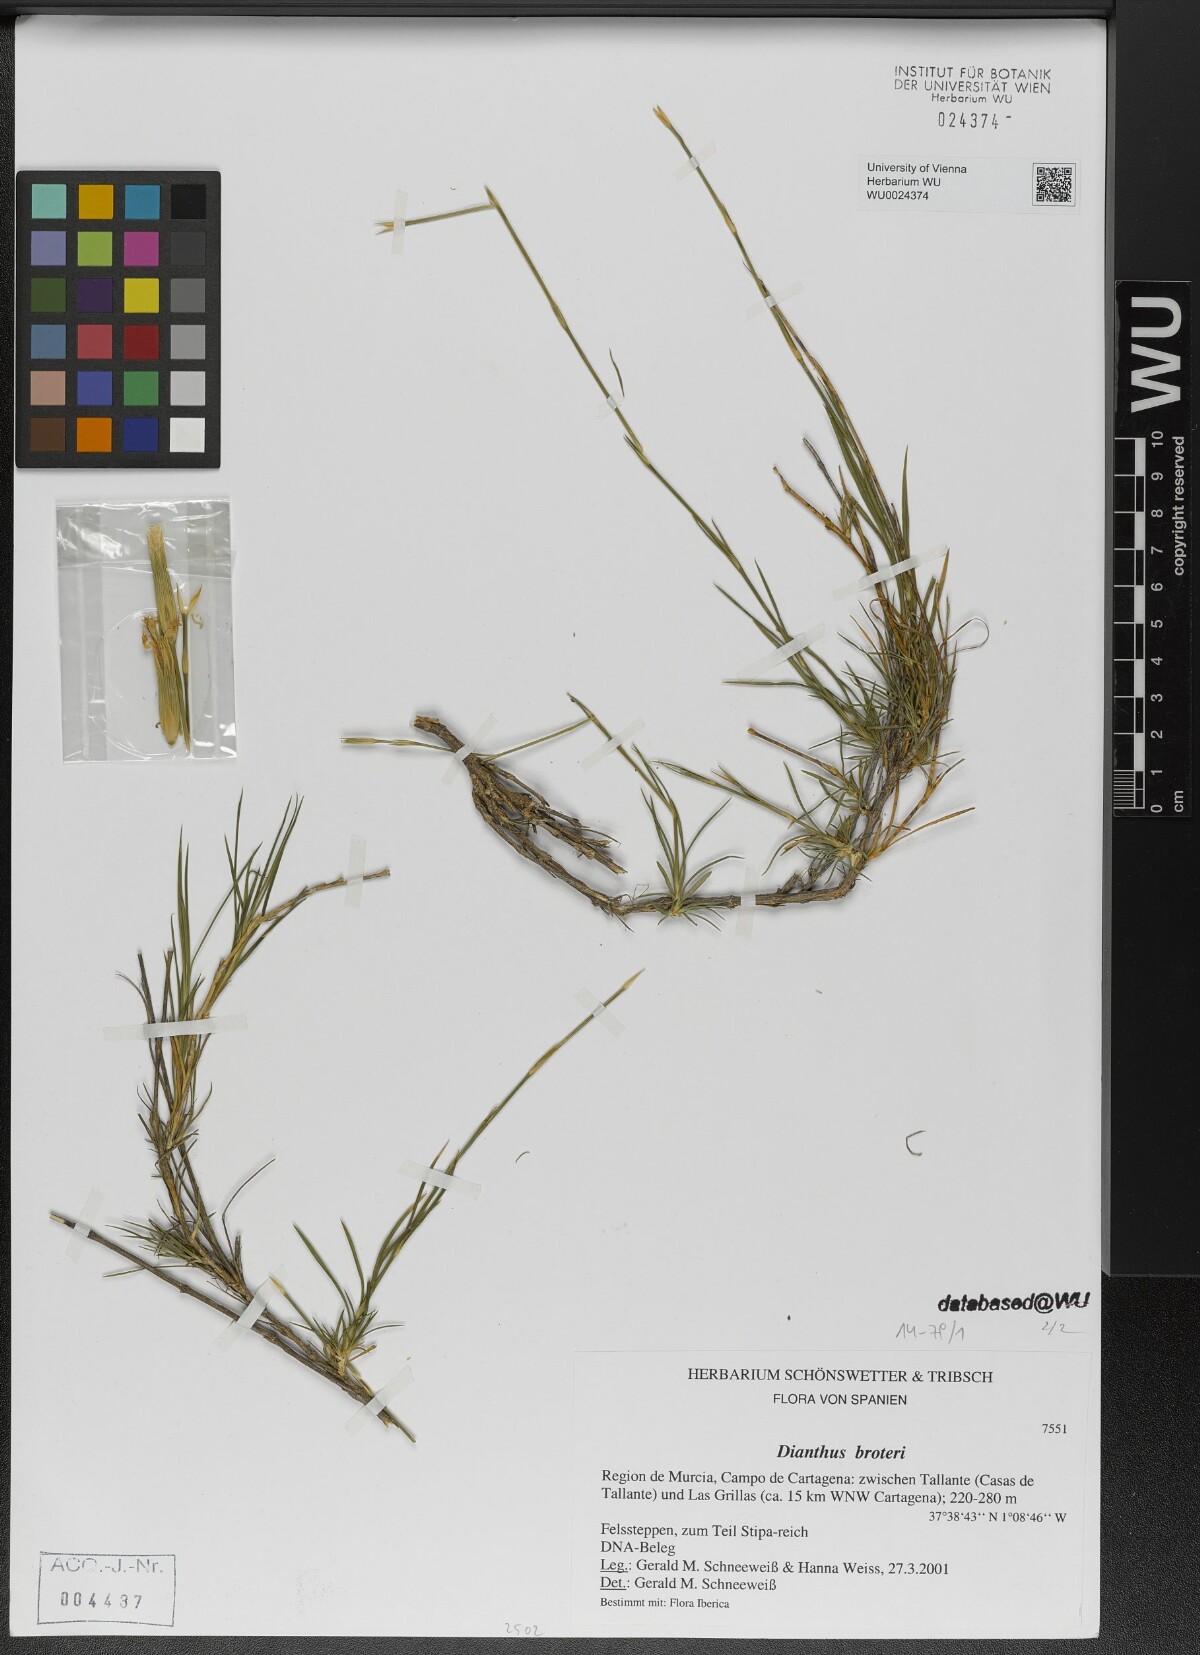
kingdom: Plantae
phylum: Tracheophyta
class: Magnoliopsida
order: Caryophyllales
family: Caryophyllaceae
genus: Dianthus
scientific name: Dianthus broteri
